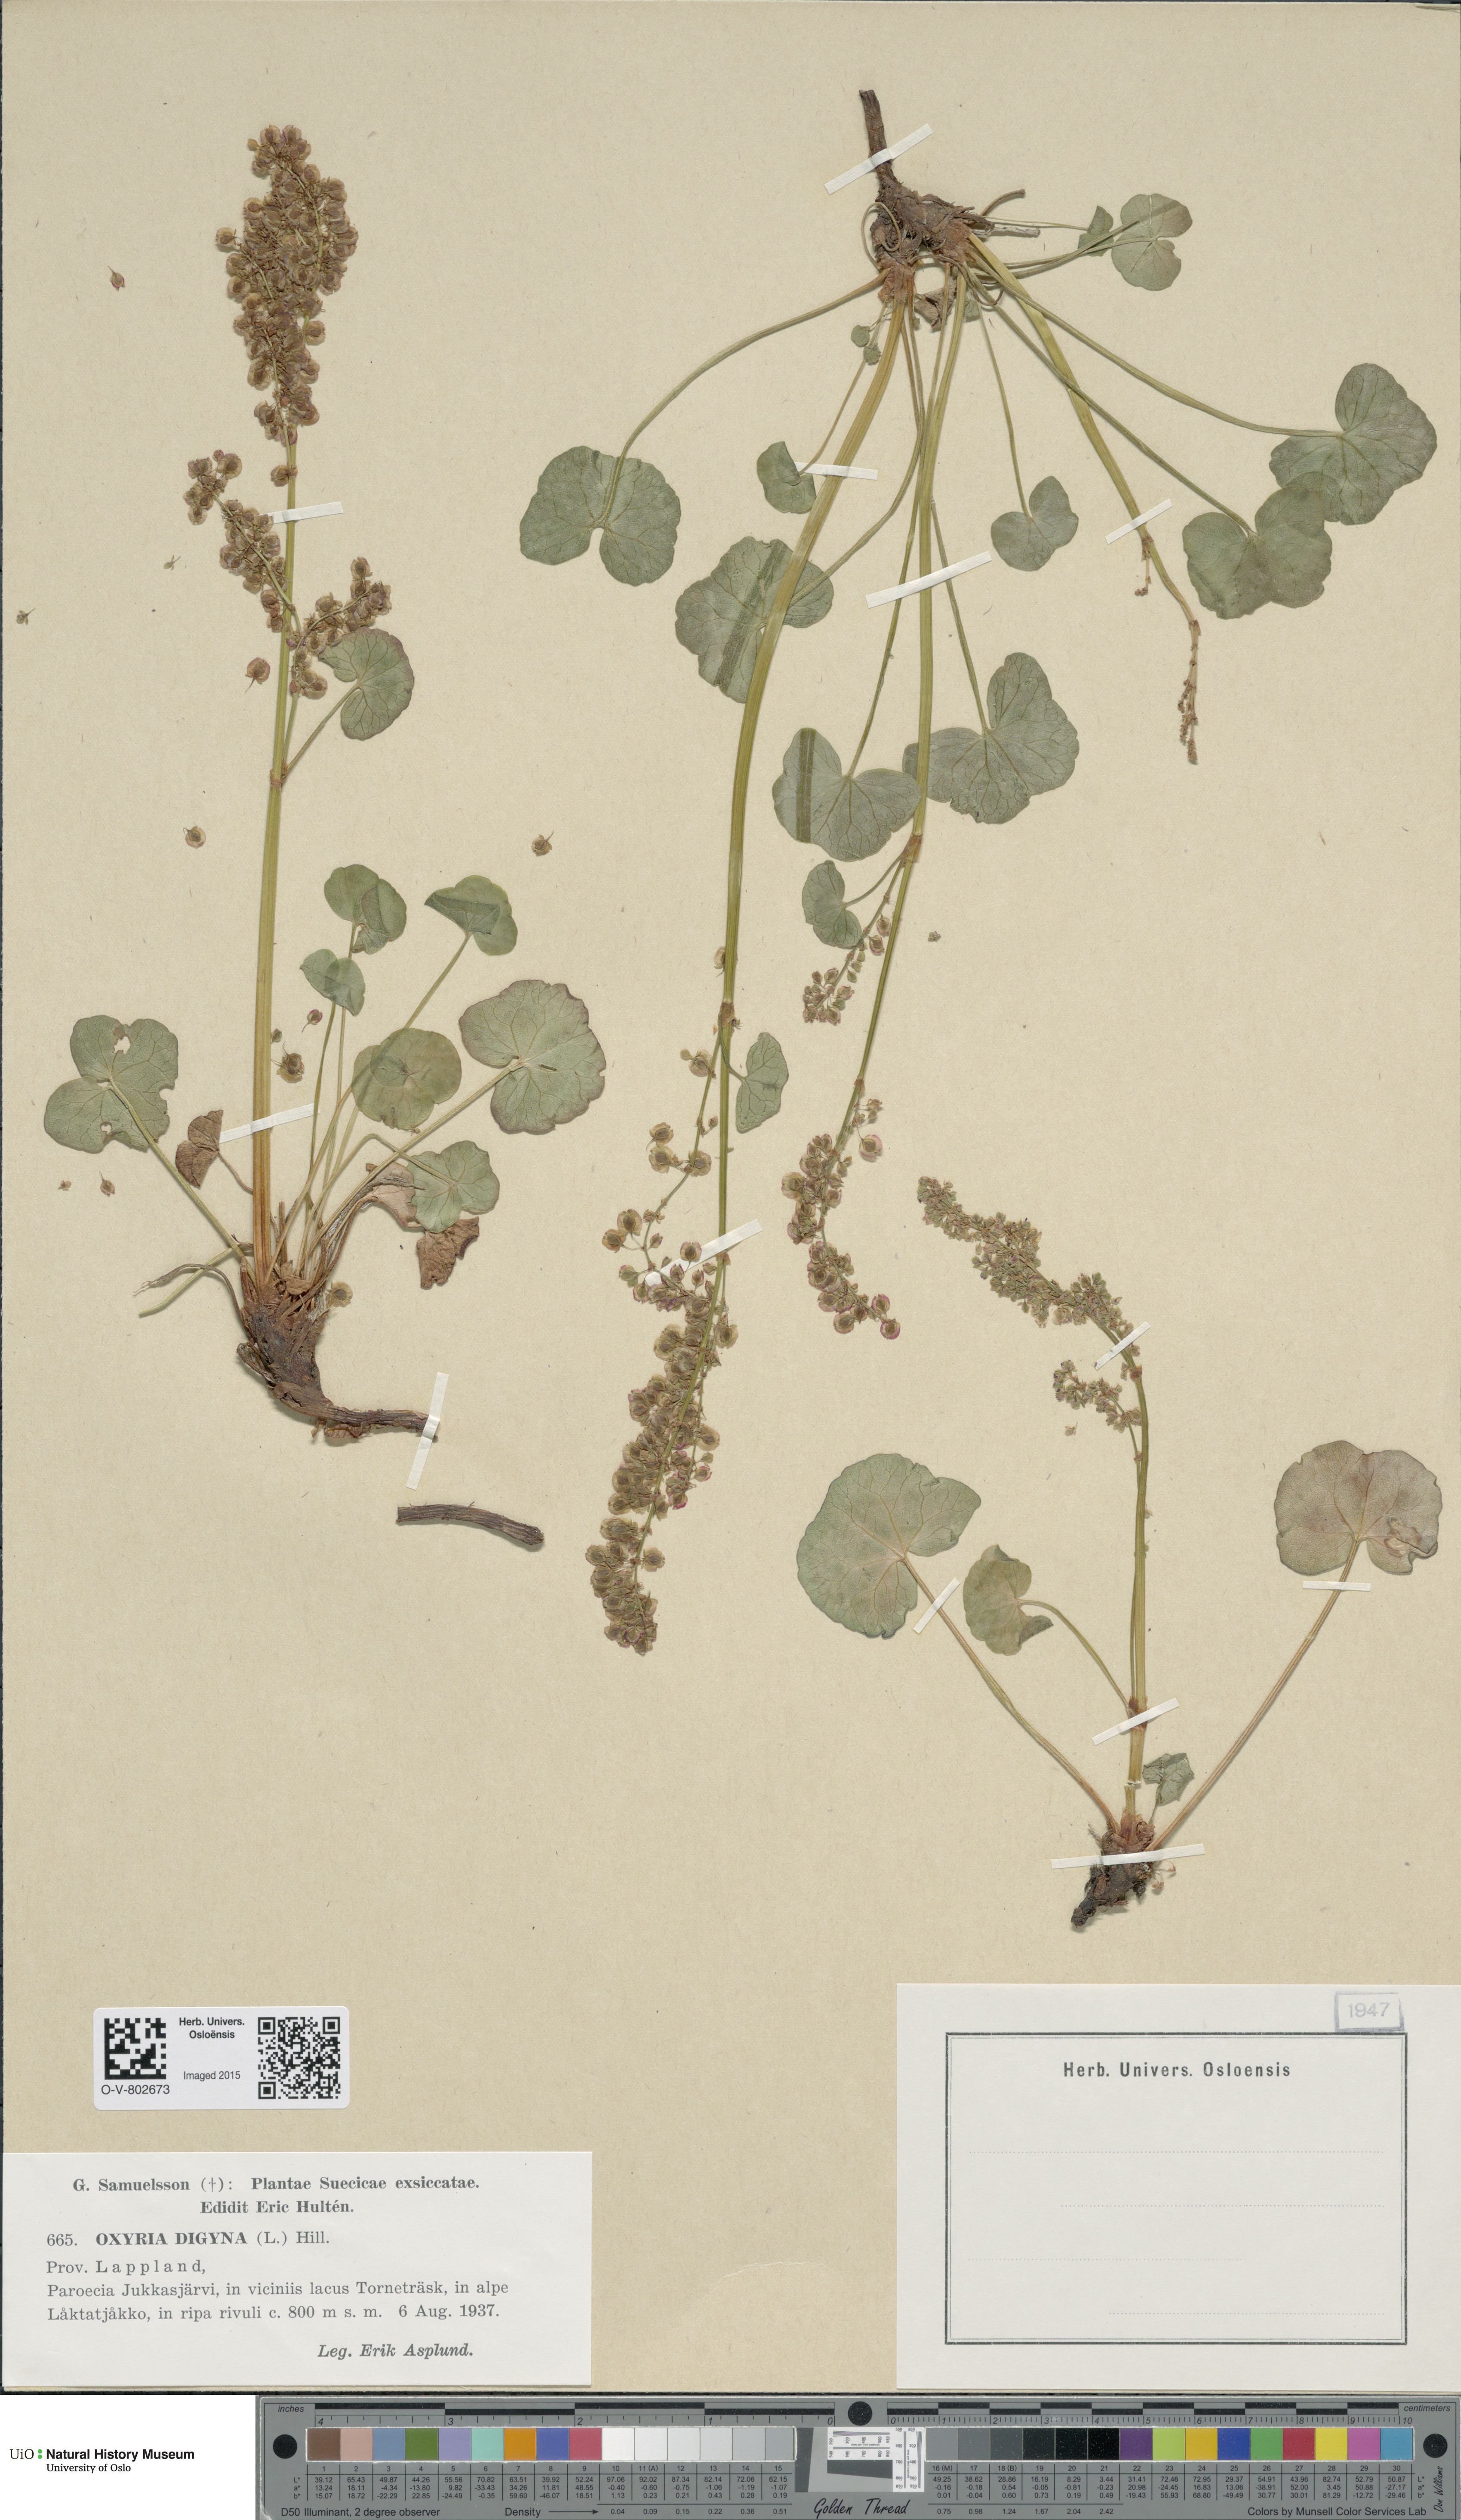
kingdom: Plantae
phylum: Tracheophyta
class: Magnoliopsida
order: Caryophyllales
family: Polygonaceae
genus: Oxyria
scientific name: Oxyria digyna
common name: Alpine mountain-sorrel
